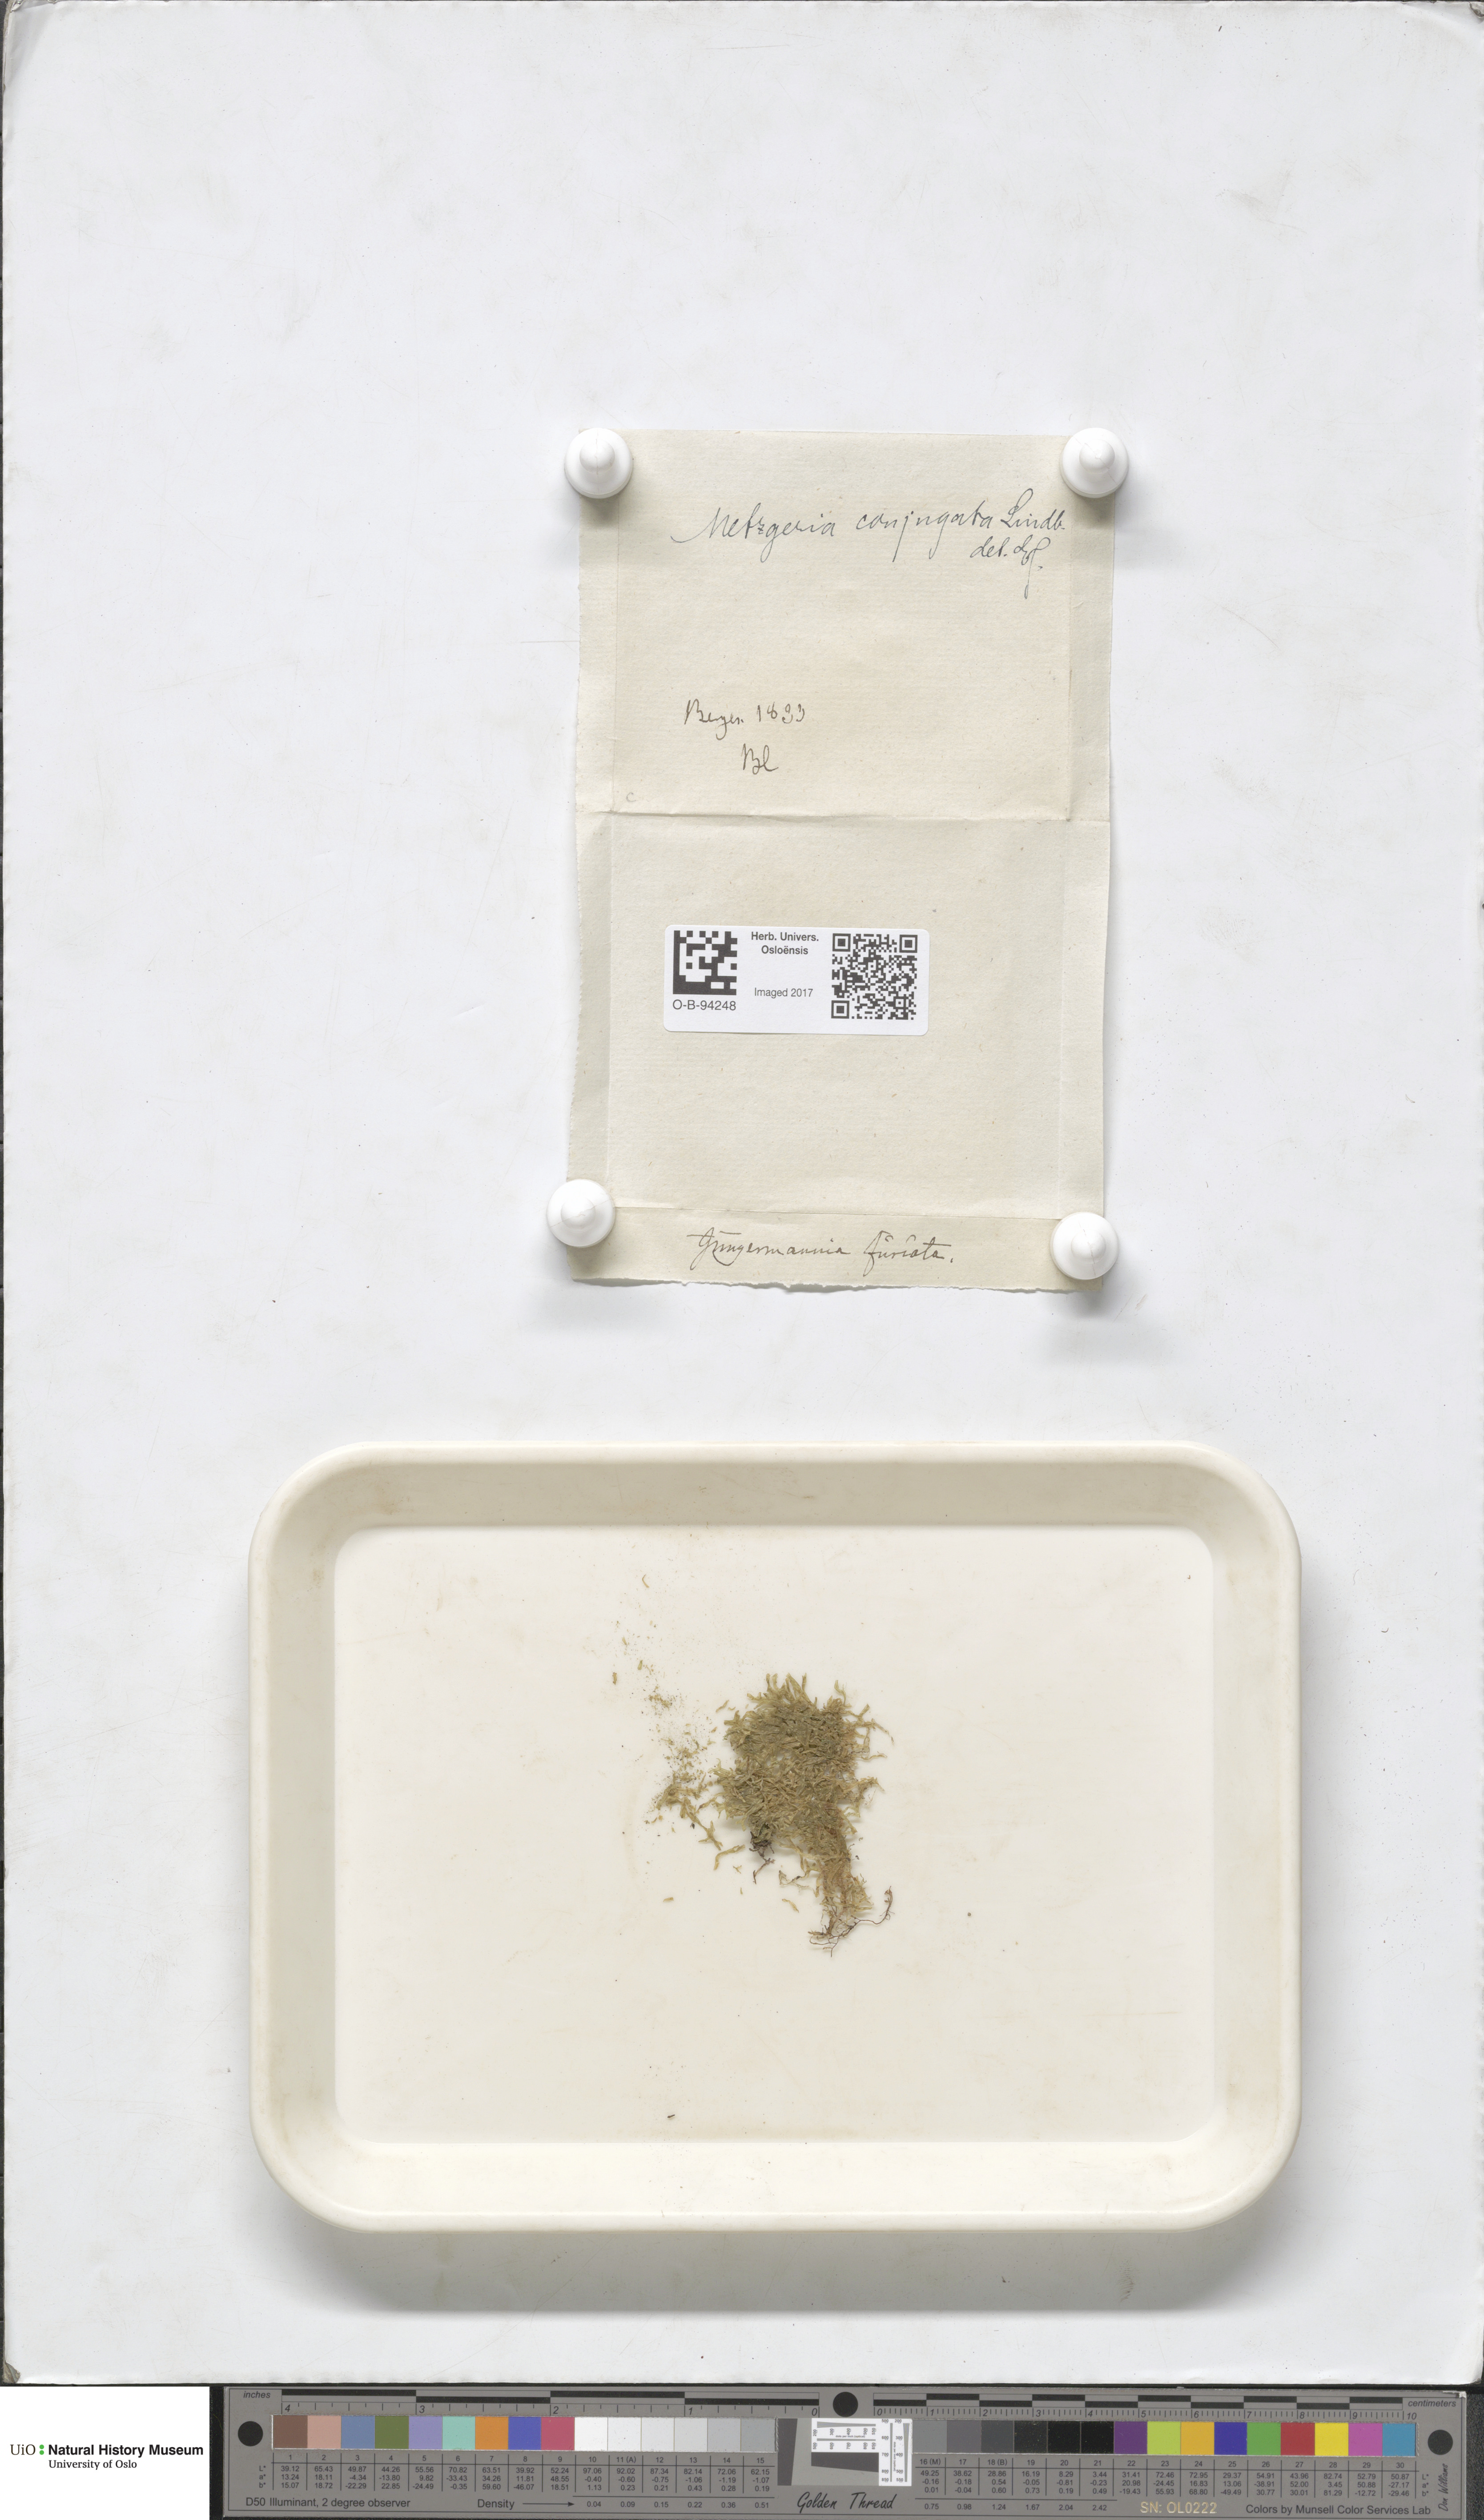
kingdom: Plantae
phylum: Marchantiophyta
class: Jungermanniopsida
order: Metzgeriales
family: Metzgeriaceae
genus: Metzgeria
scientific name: Metzgeria conjugata
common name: Rock veilwort
